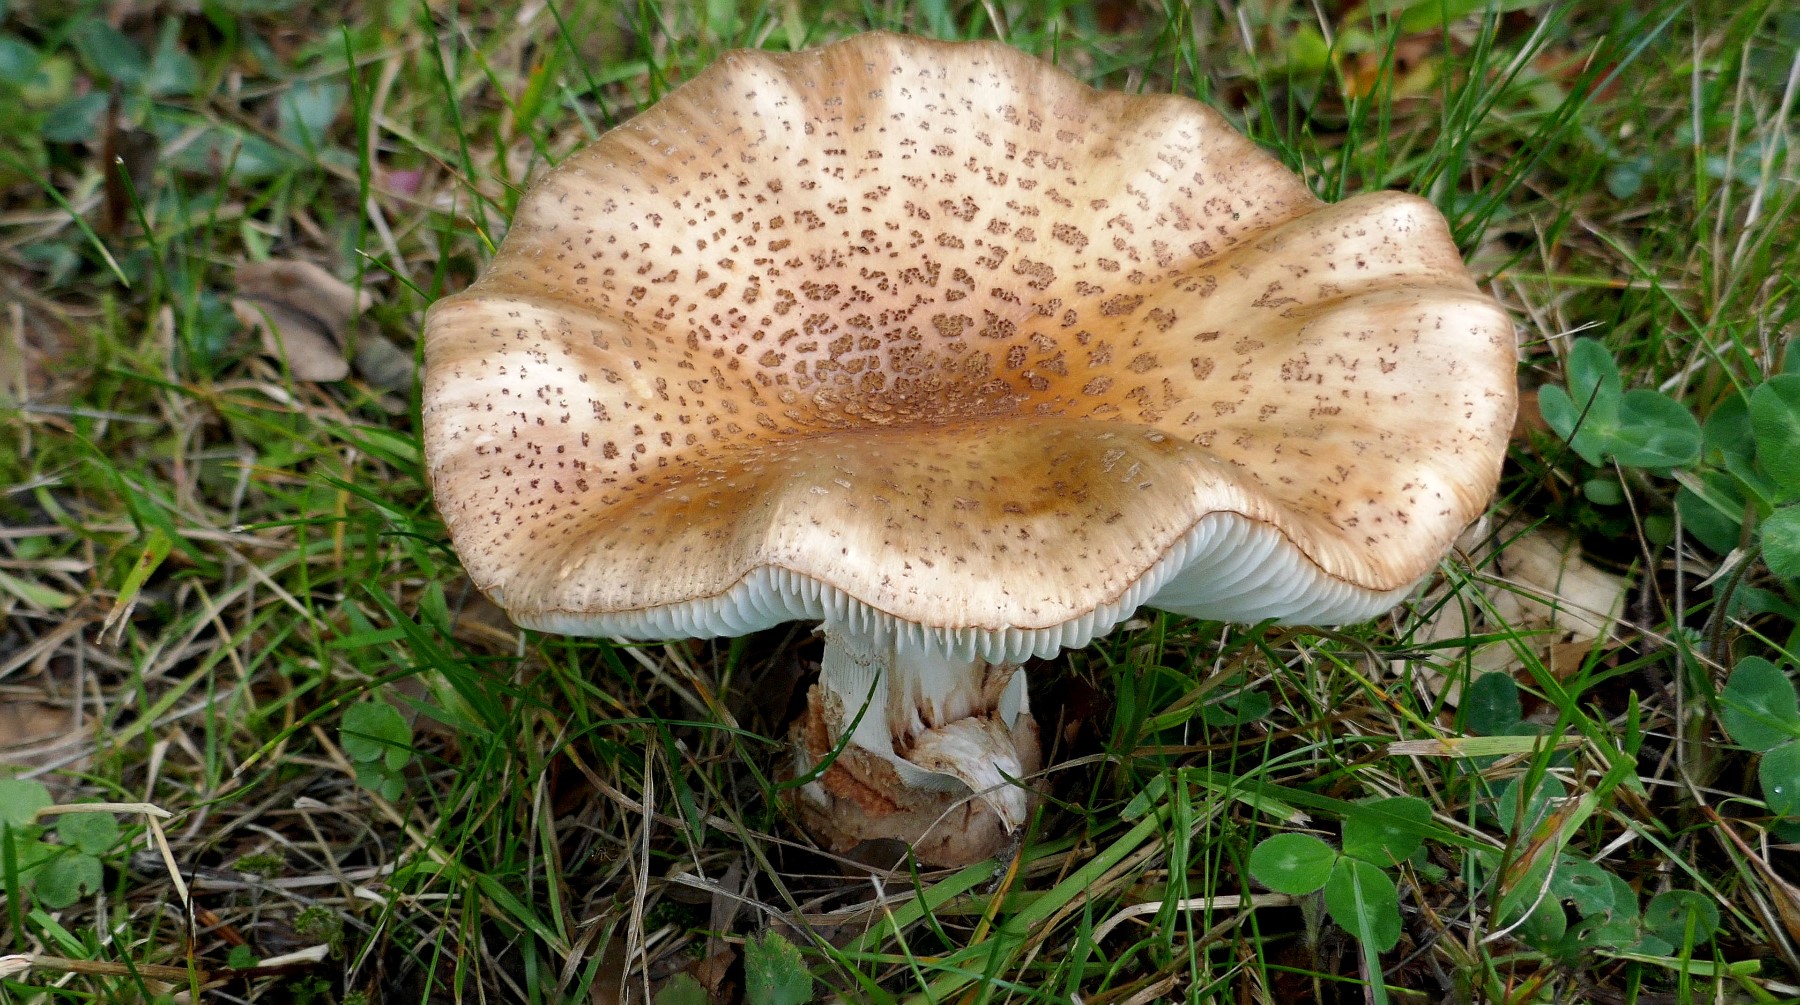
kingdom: Fungi
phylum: Basidiomycota
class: Agaricomycetes
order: Agaricales
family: Amanitaceae
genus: Amanita
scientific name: Amanita rubescens
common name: rødmende fluesvamp
